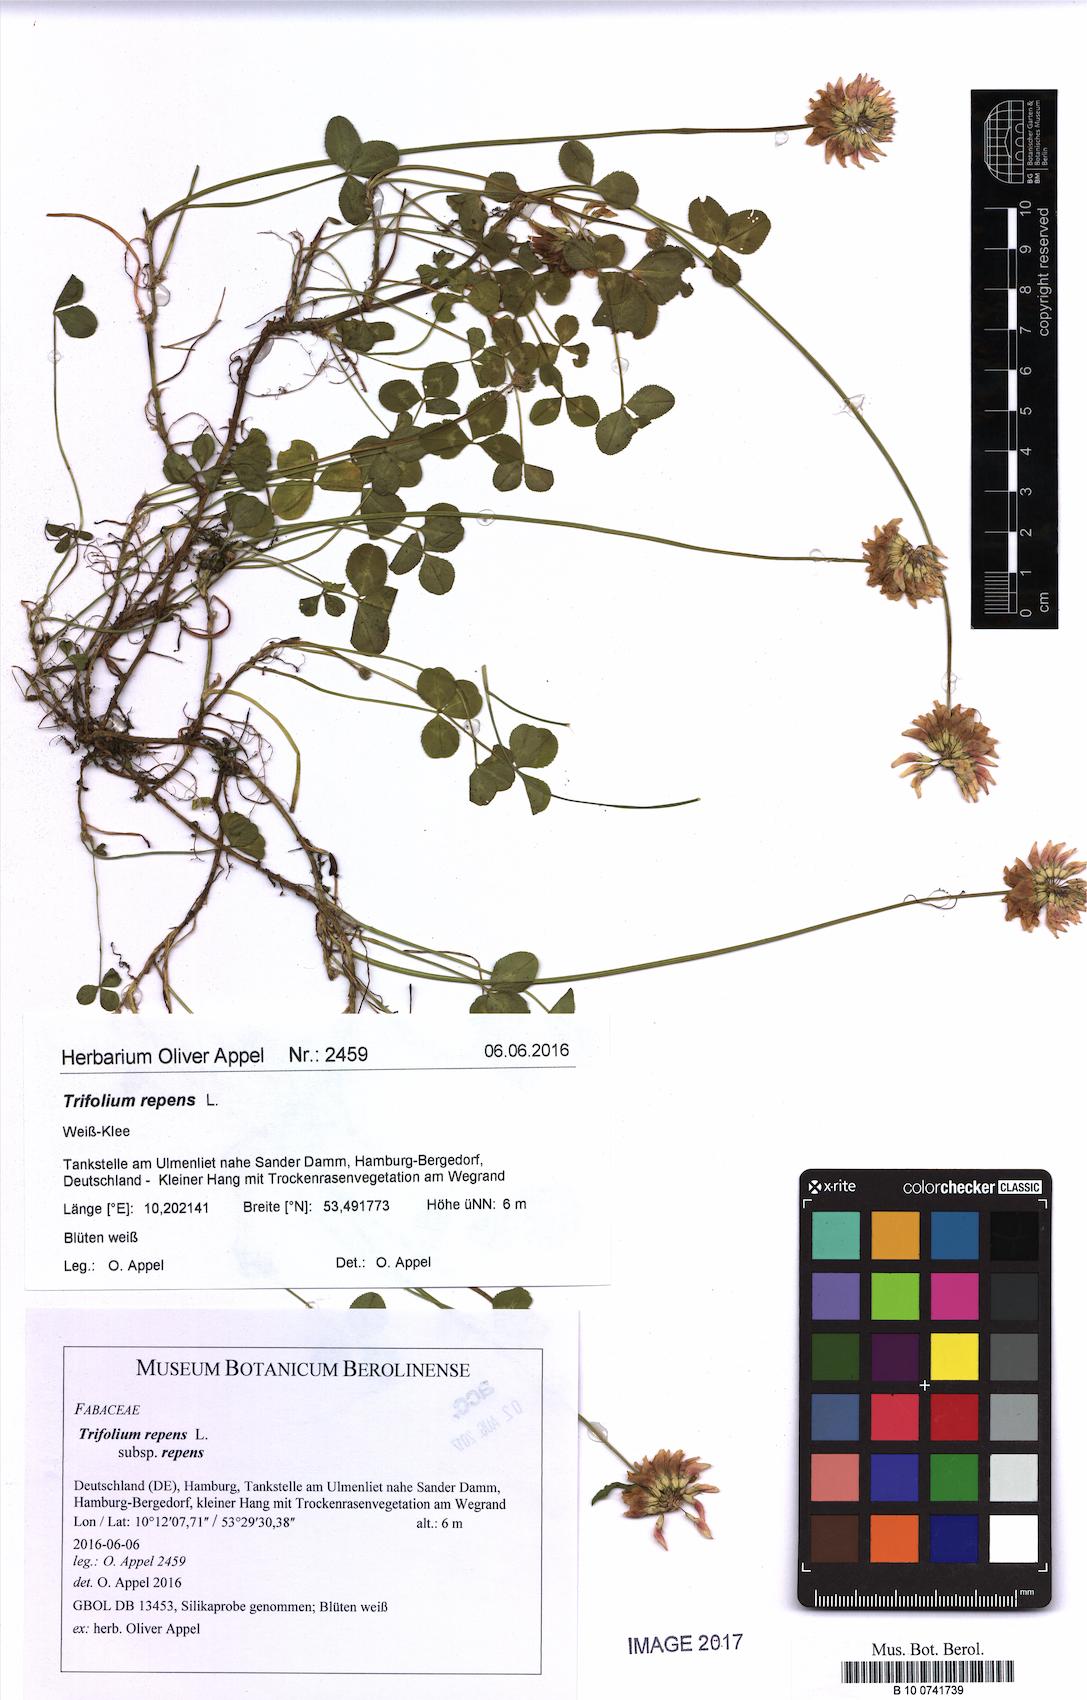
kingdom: Plantae
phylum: Tracheophyta
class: Magnoliopsida
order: Fabales
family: Fabaceae
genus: Trifolium
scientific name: Trifolium repens
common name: White clover
